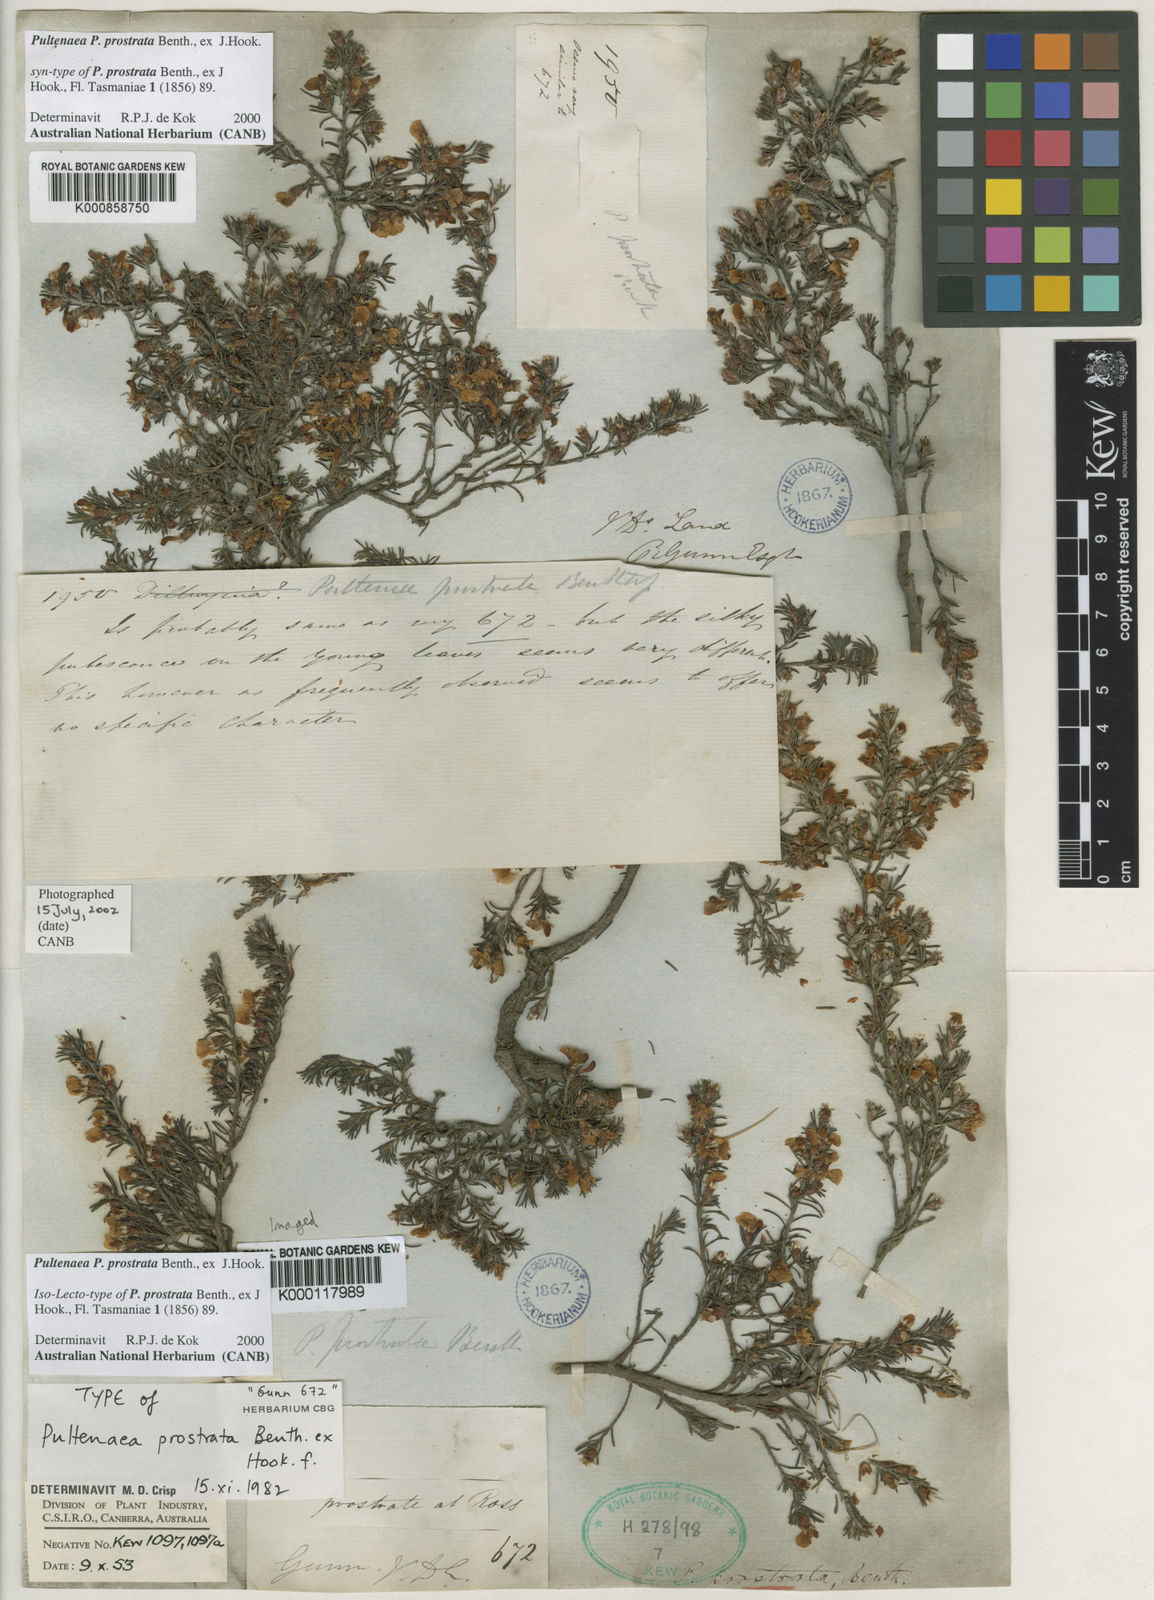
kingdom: Plantae
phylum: Tracheophyta
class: Magnoliopsida
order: Fabales
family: Fabaceae
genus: Pultenaea
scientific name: Pultenaea tenuifolia
